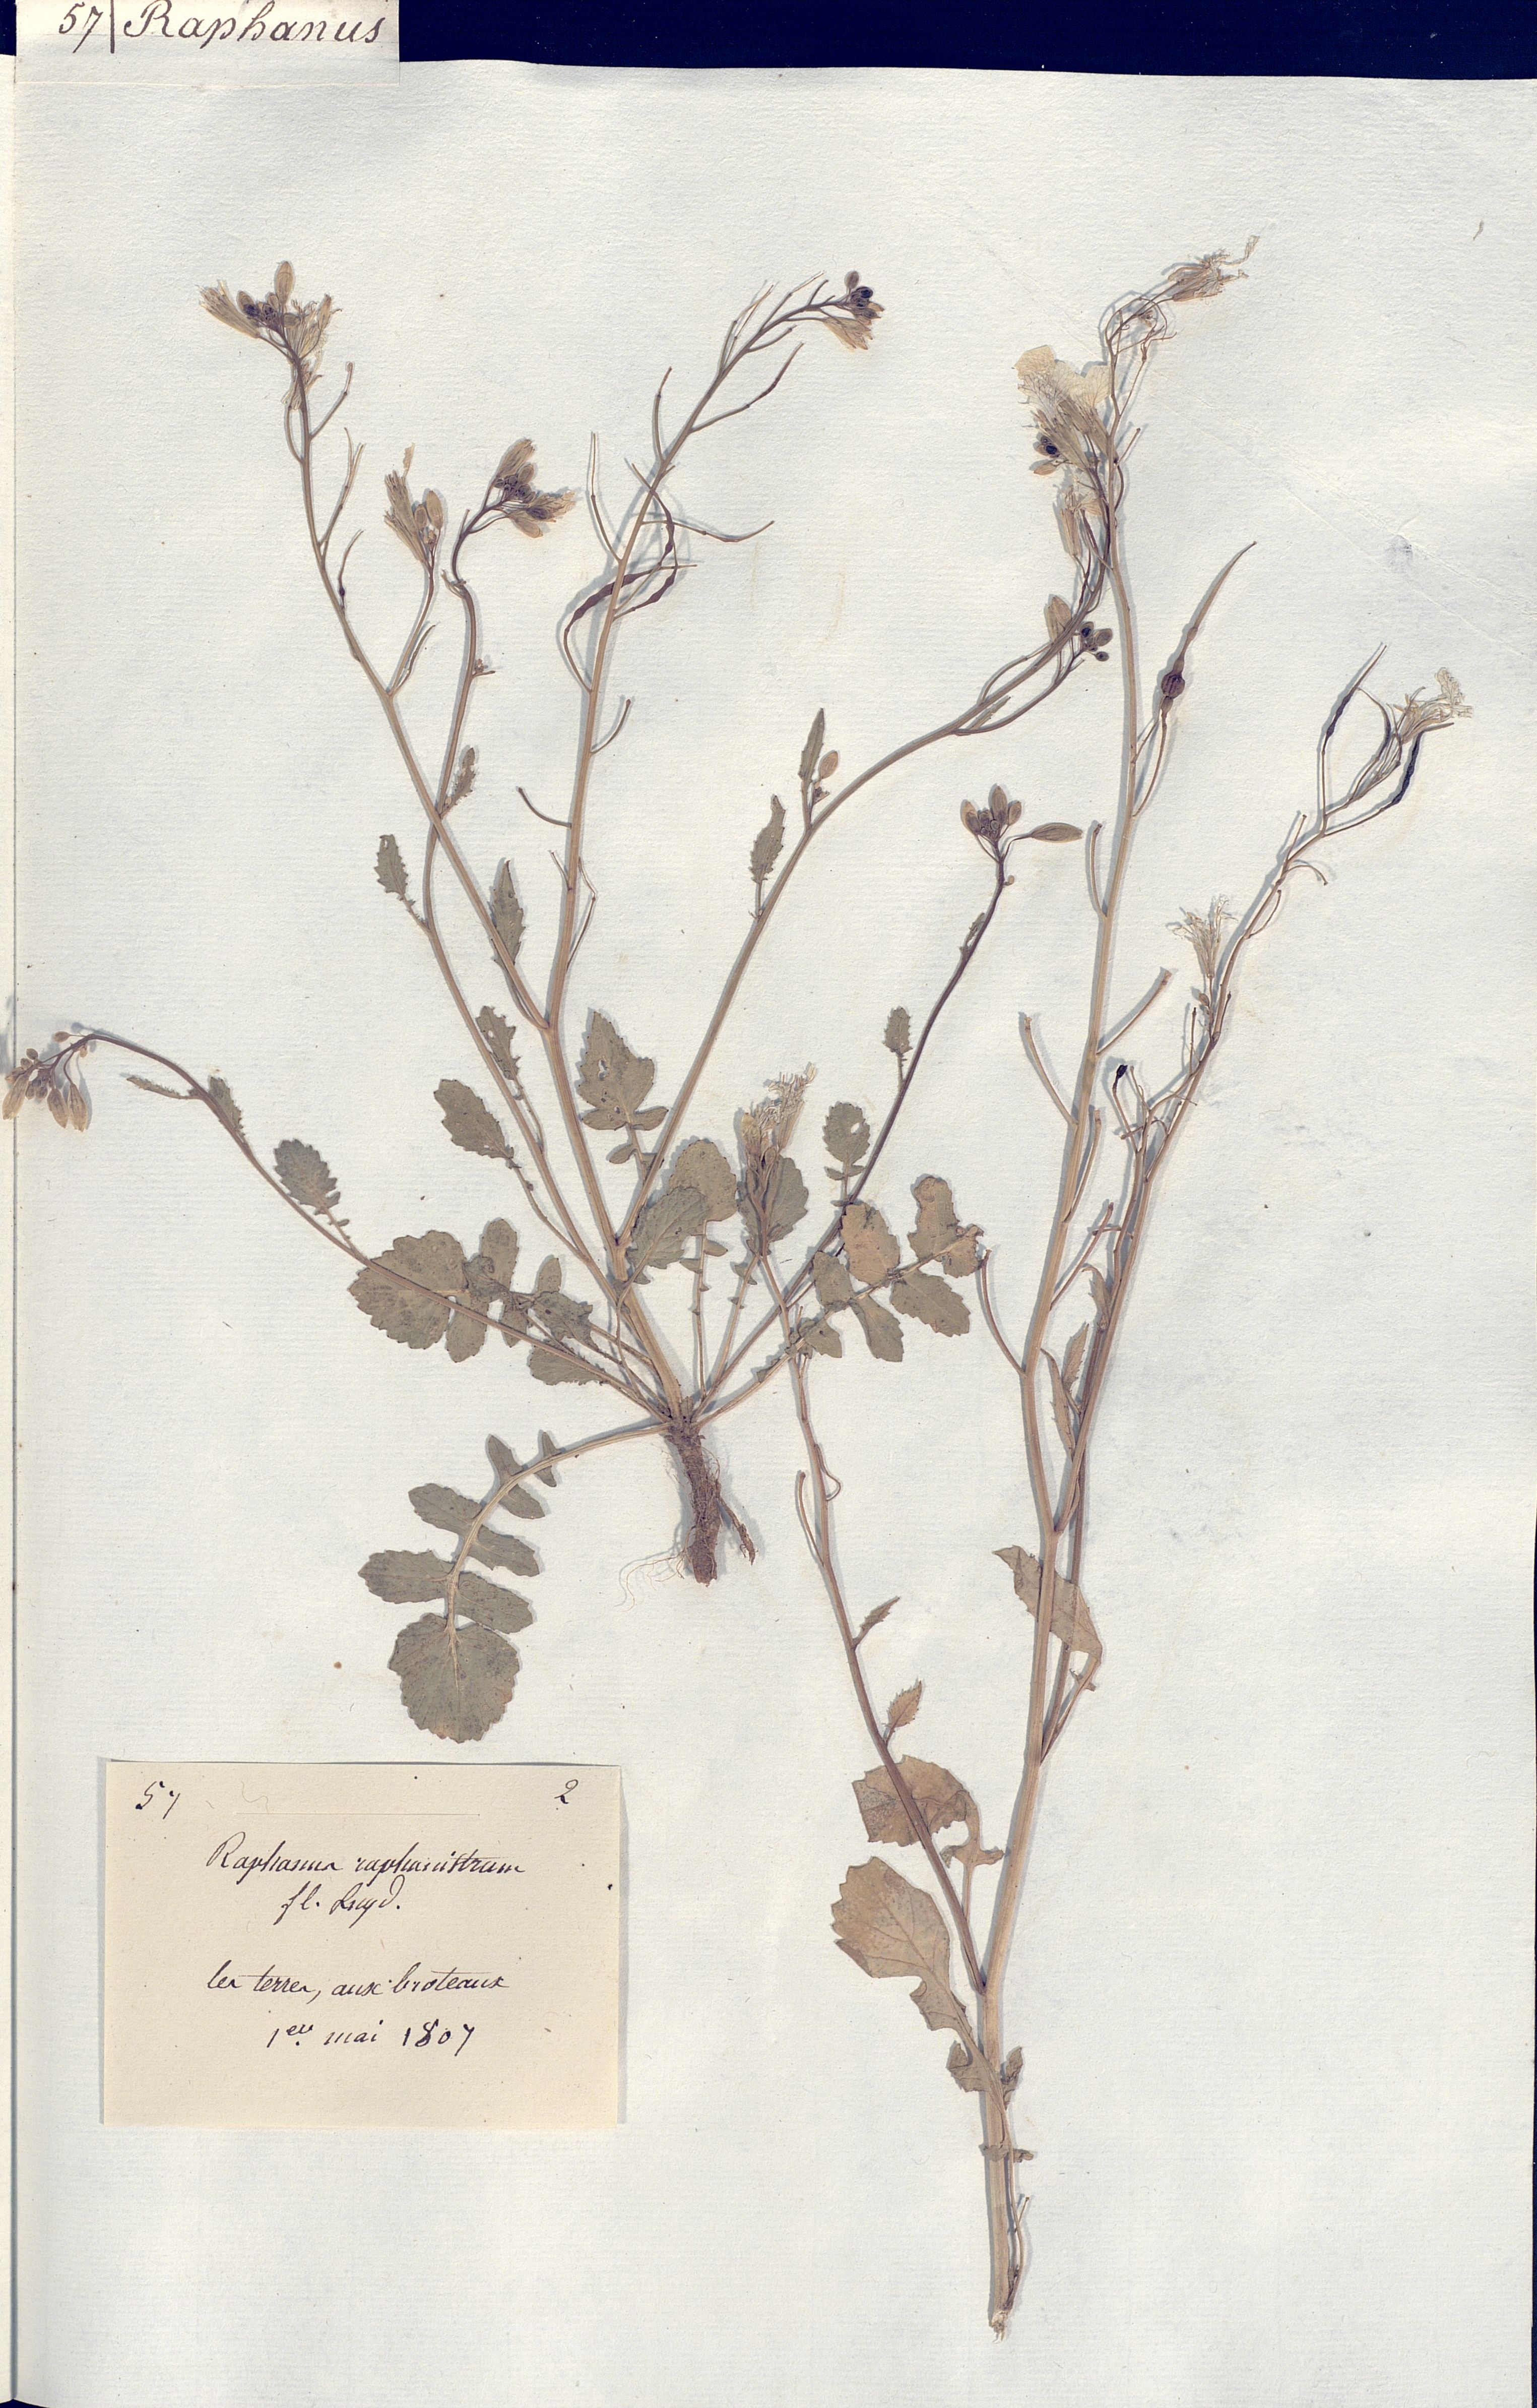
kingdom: Plantae
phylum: Tracheophyta
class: Magnoliopsida
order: Brassicales
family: Brassicaceae
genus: Raphanus
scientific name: Raphanus raphanistrum
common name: Wild radish
